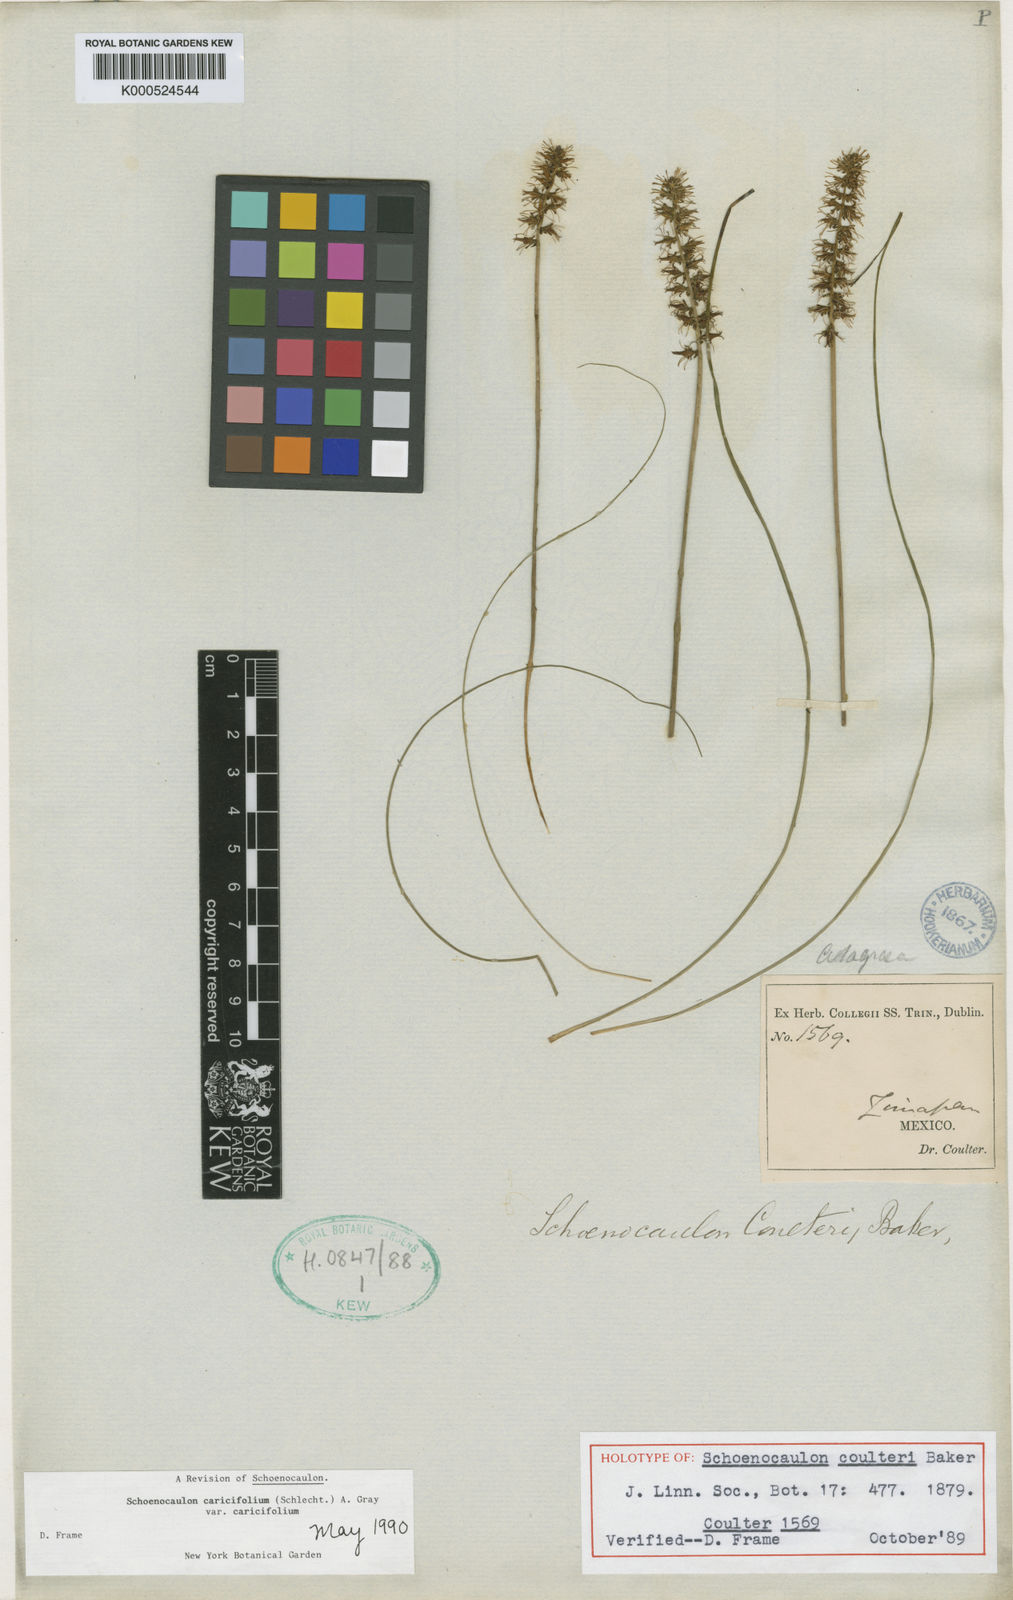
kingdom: Plantae
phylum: Tracheophyta
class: Liliopsida
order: Liliales
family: Melanthiaceae
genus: Schoenocaulon
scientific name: Schoenocaulon caricifolium
